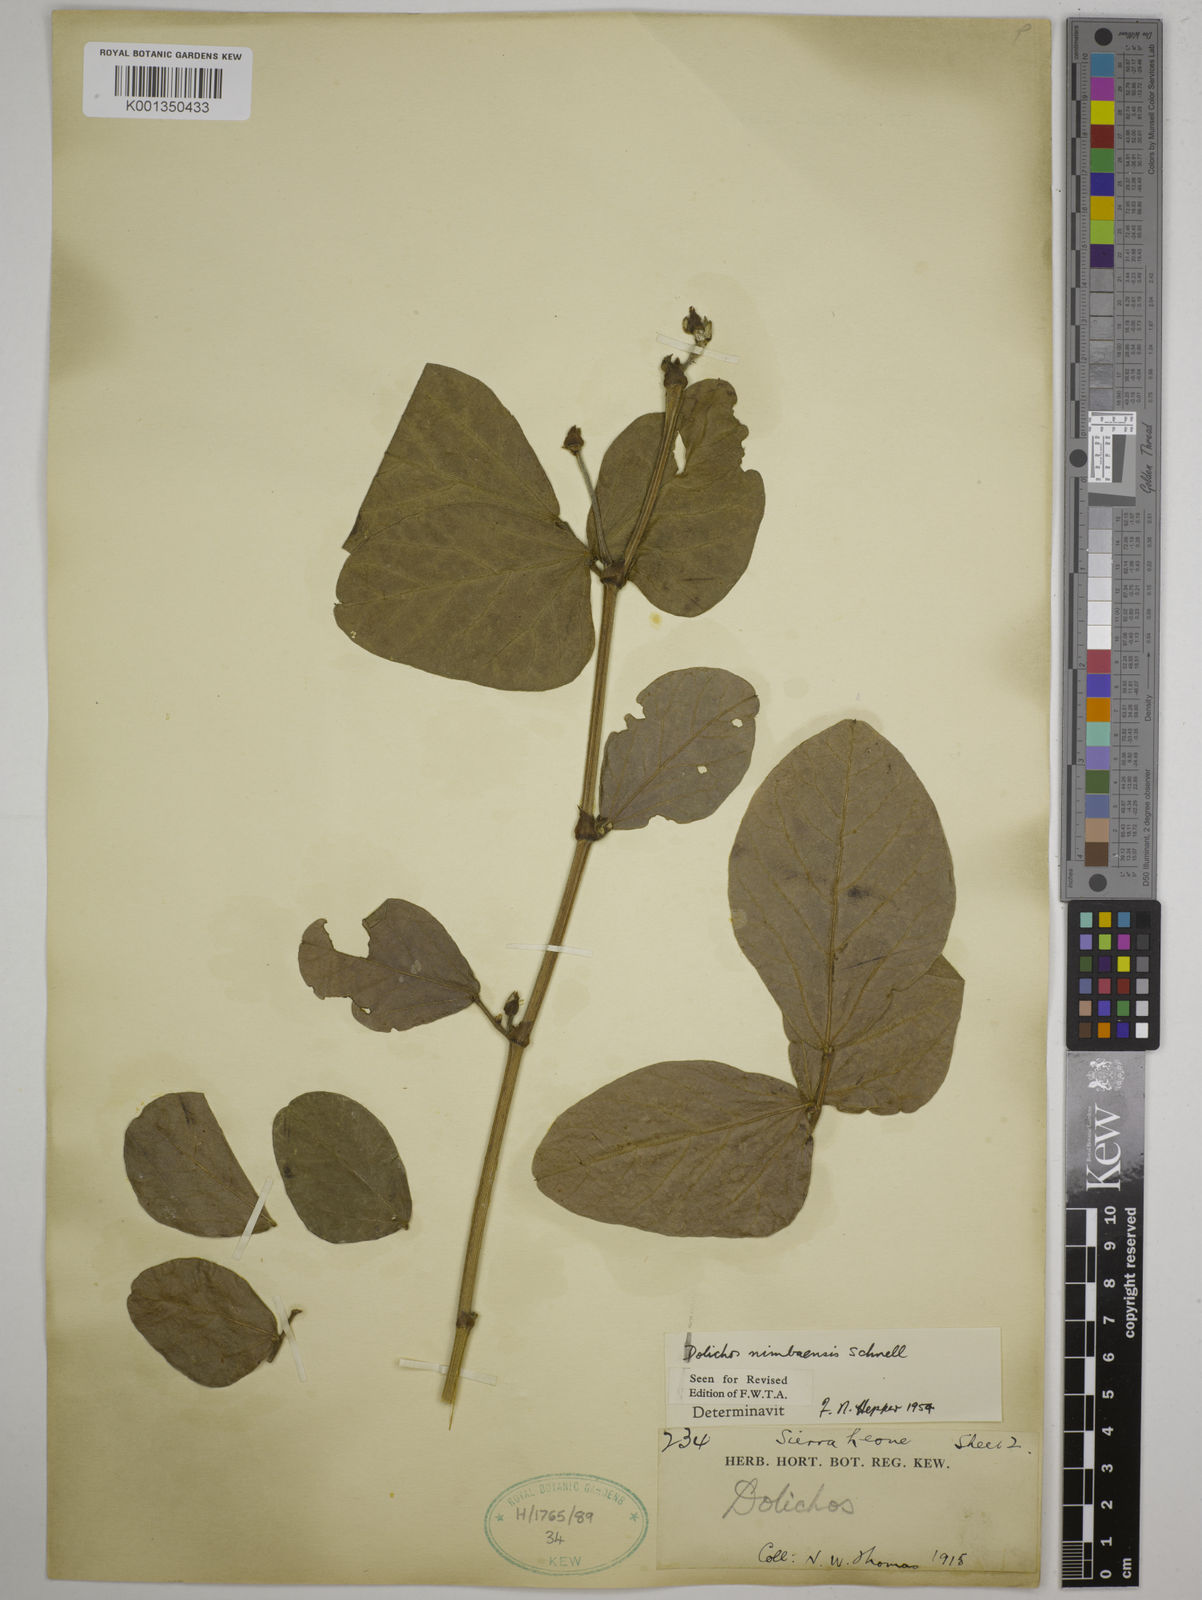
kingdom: Plantae
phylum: Tracheophyta
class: Magnoliopsida
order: Fabales
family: Fabaceae
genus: Dolichos
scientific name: Dolichos nimbaensis
